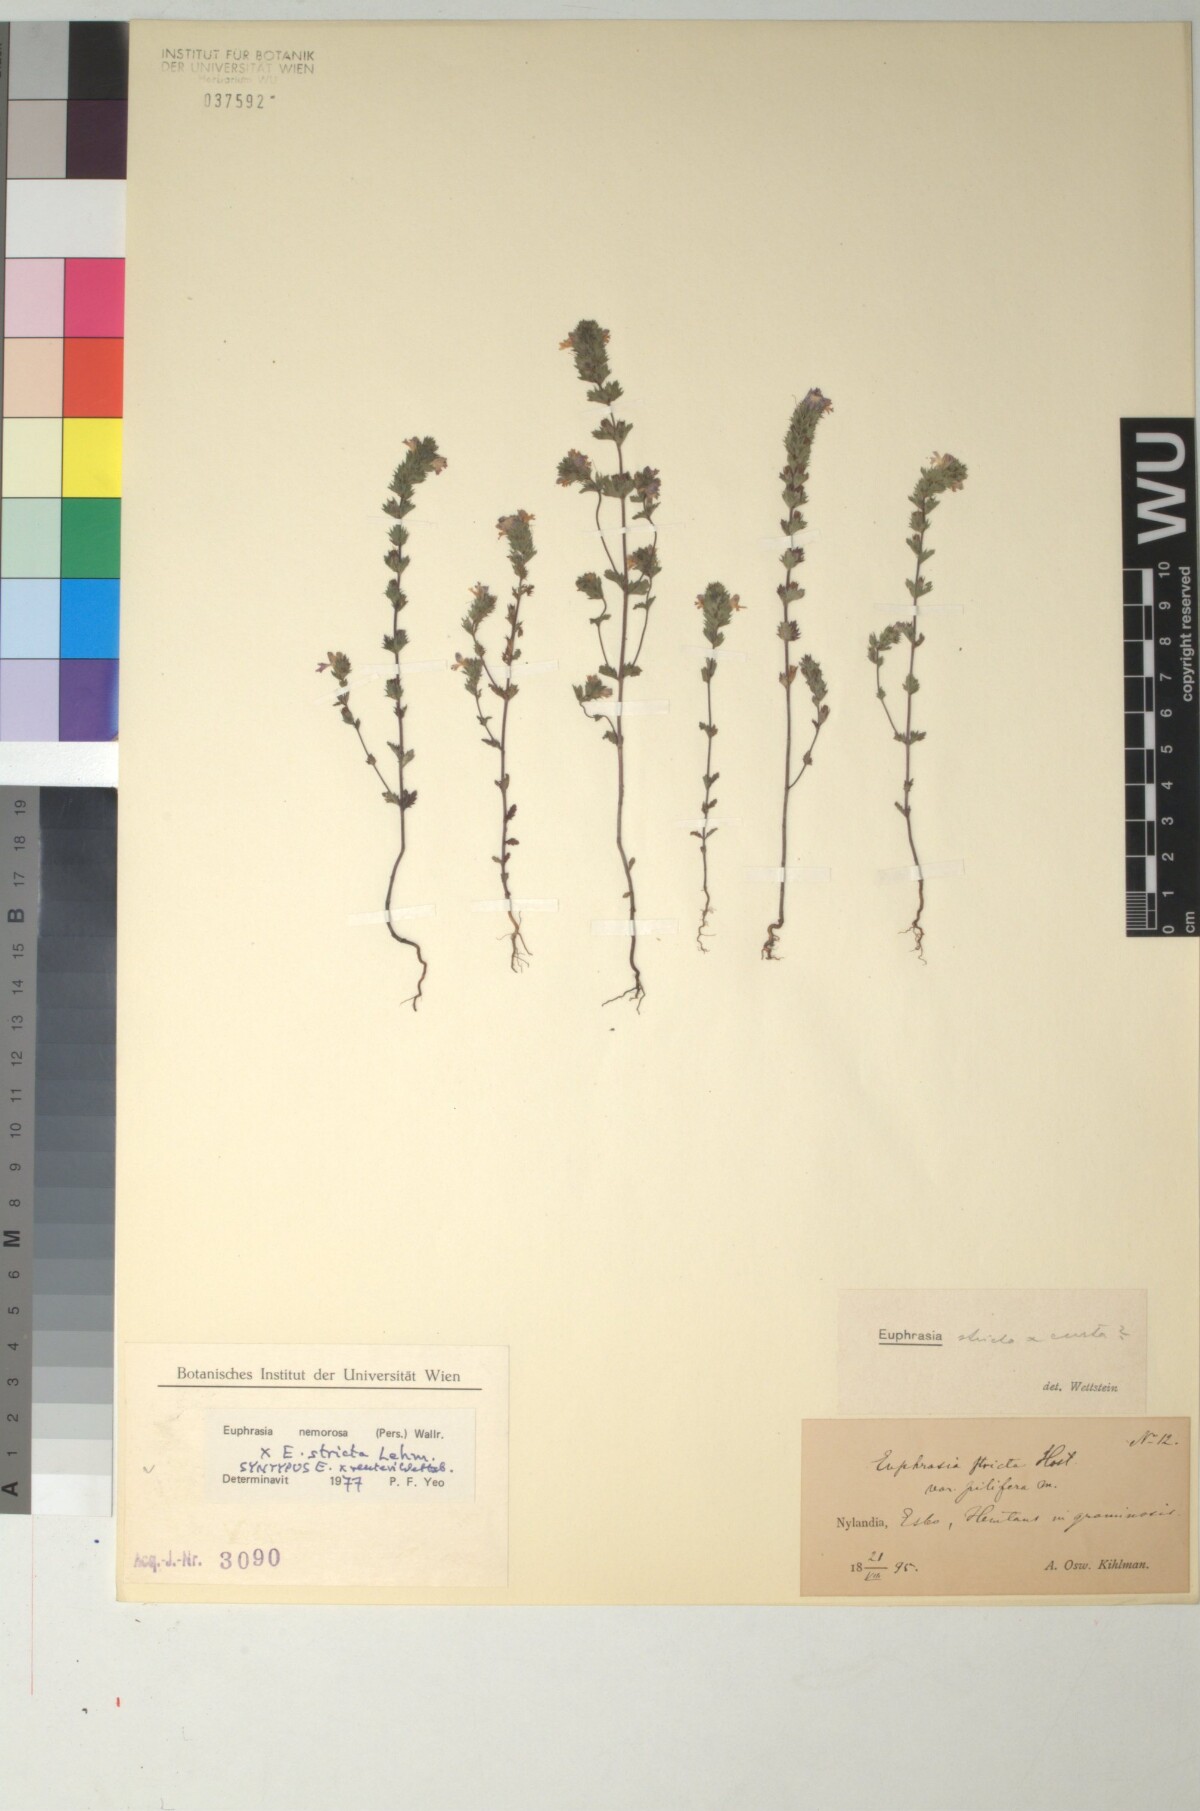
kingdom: Plantae
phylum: Tracheophyta
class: Magnoliopsida
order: Lamiales
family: Orobanchaceae
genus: Euphrasia
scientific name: Euphrasia reuteri
